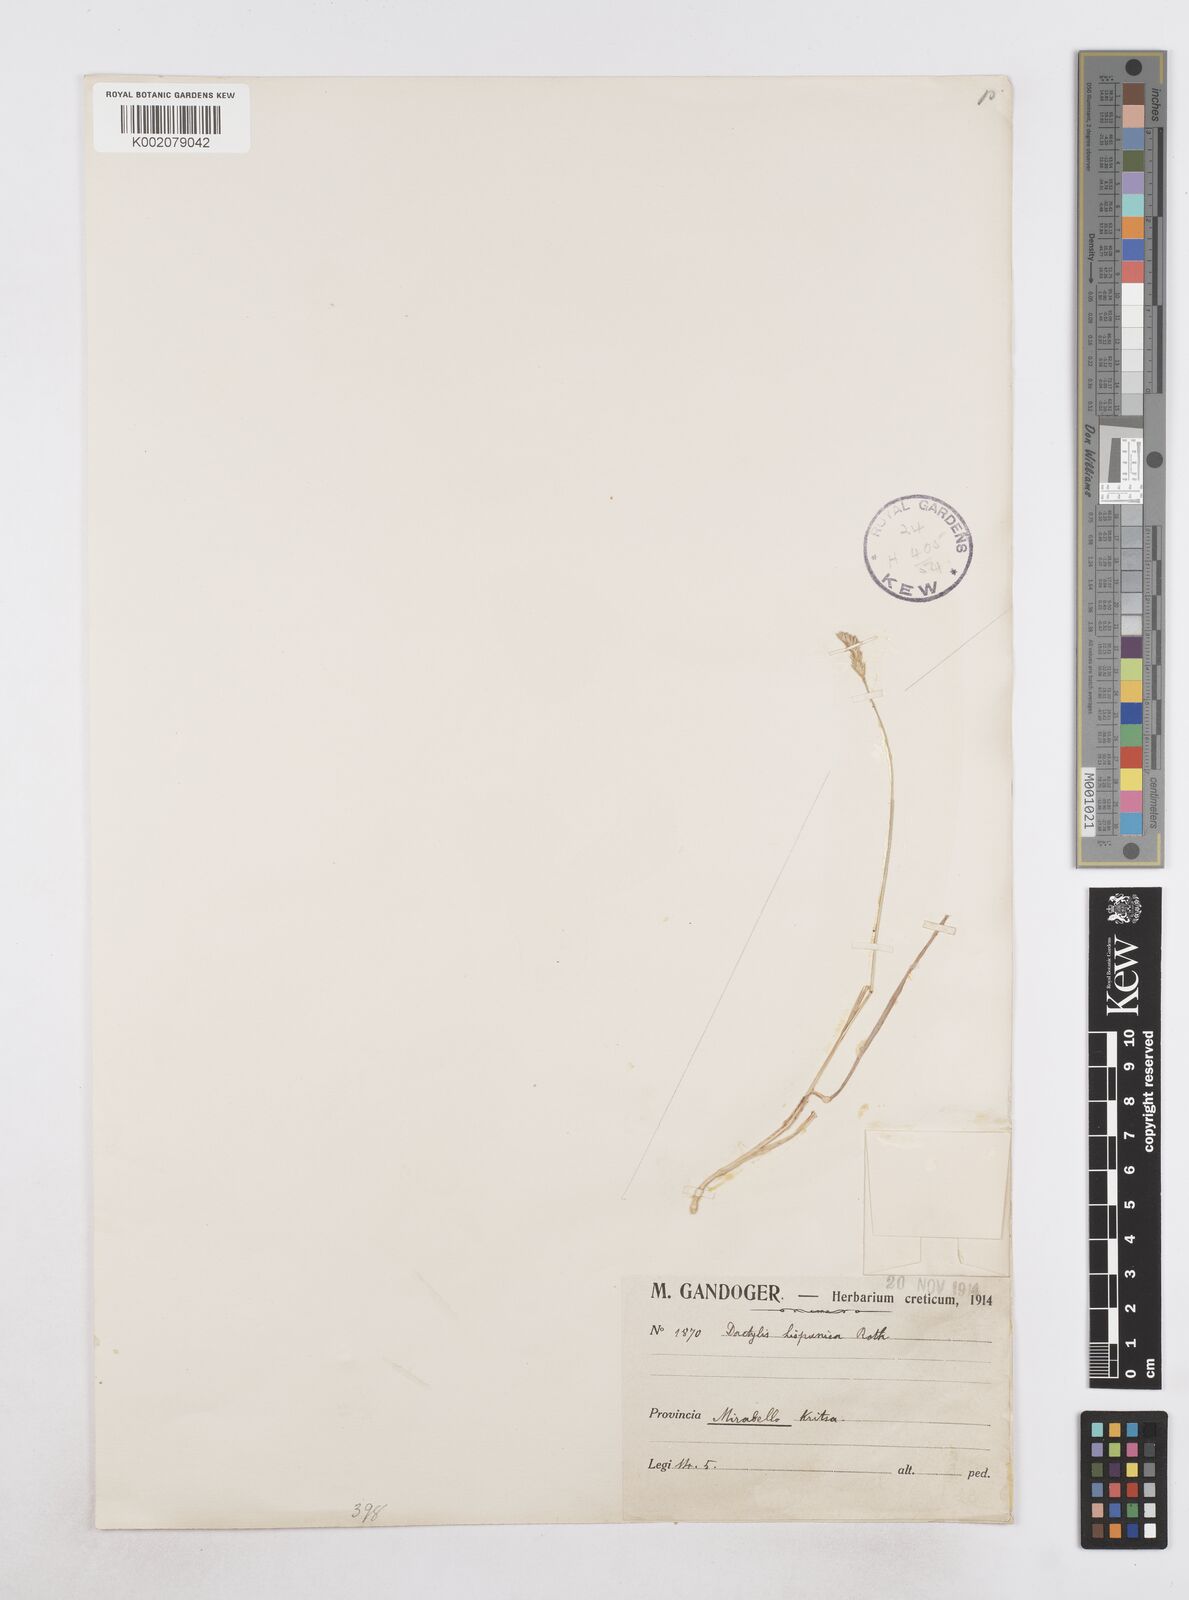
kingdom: Plantae
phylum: Tracheophyta
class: Liliopsida
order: Poales
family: Poaceae
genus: Dactylis
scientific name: Dactylis glomerata
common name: Orchardgrass
